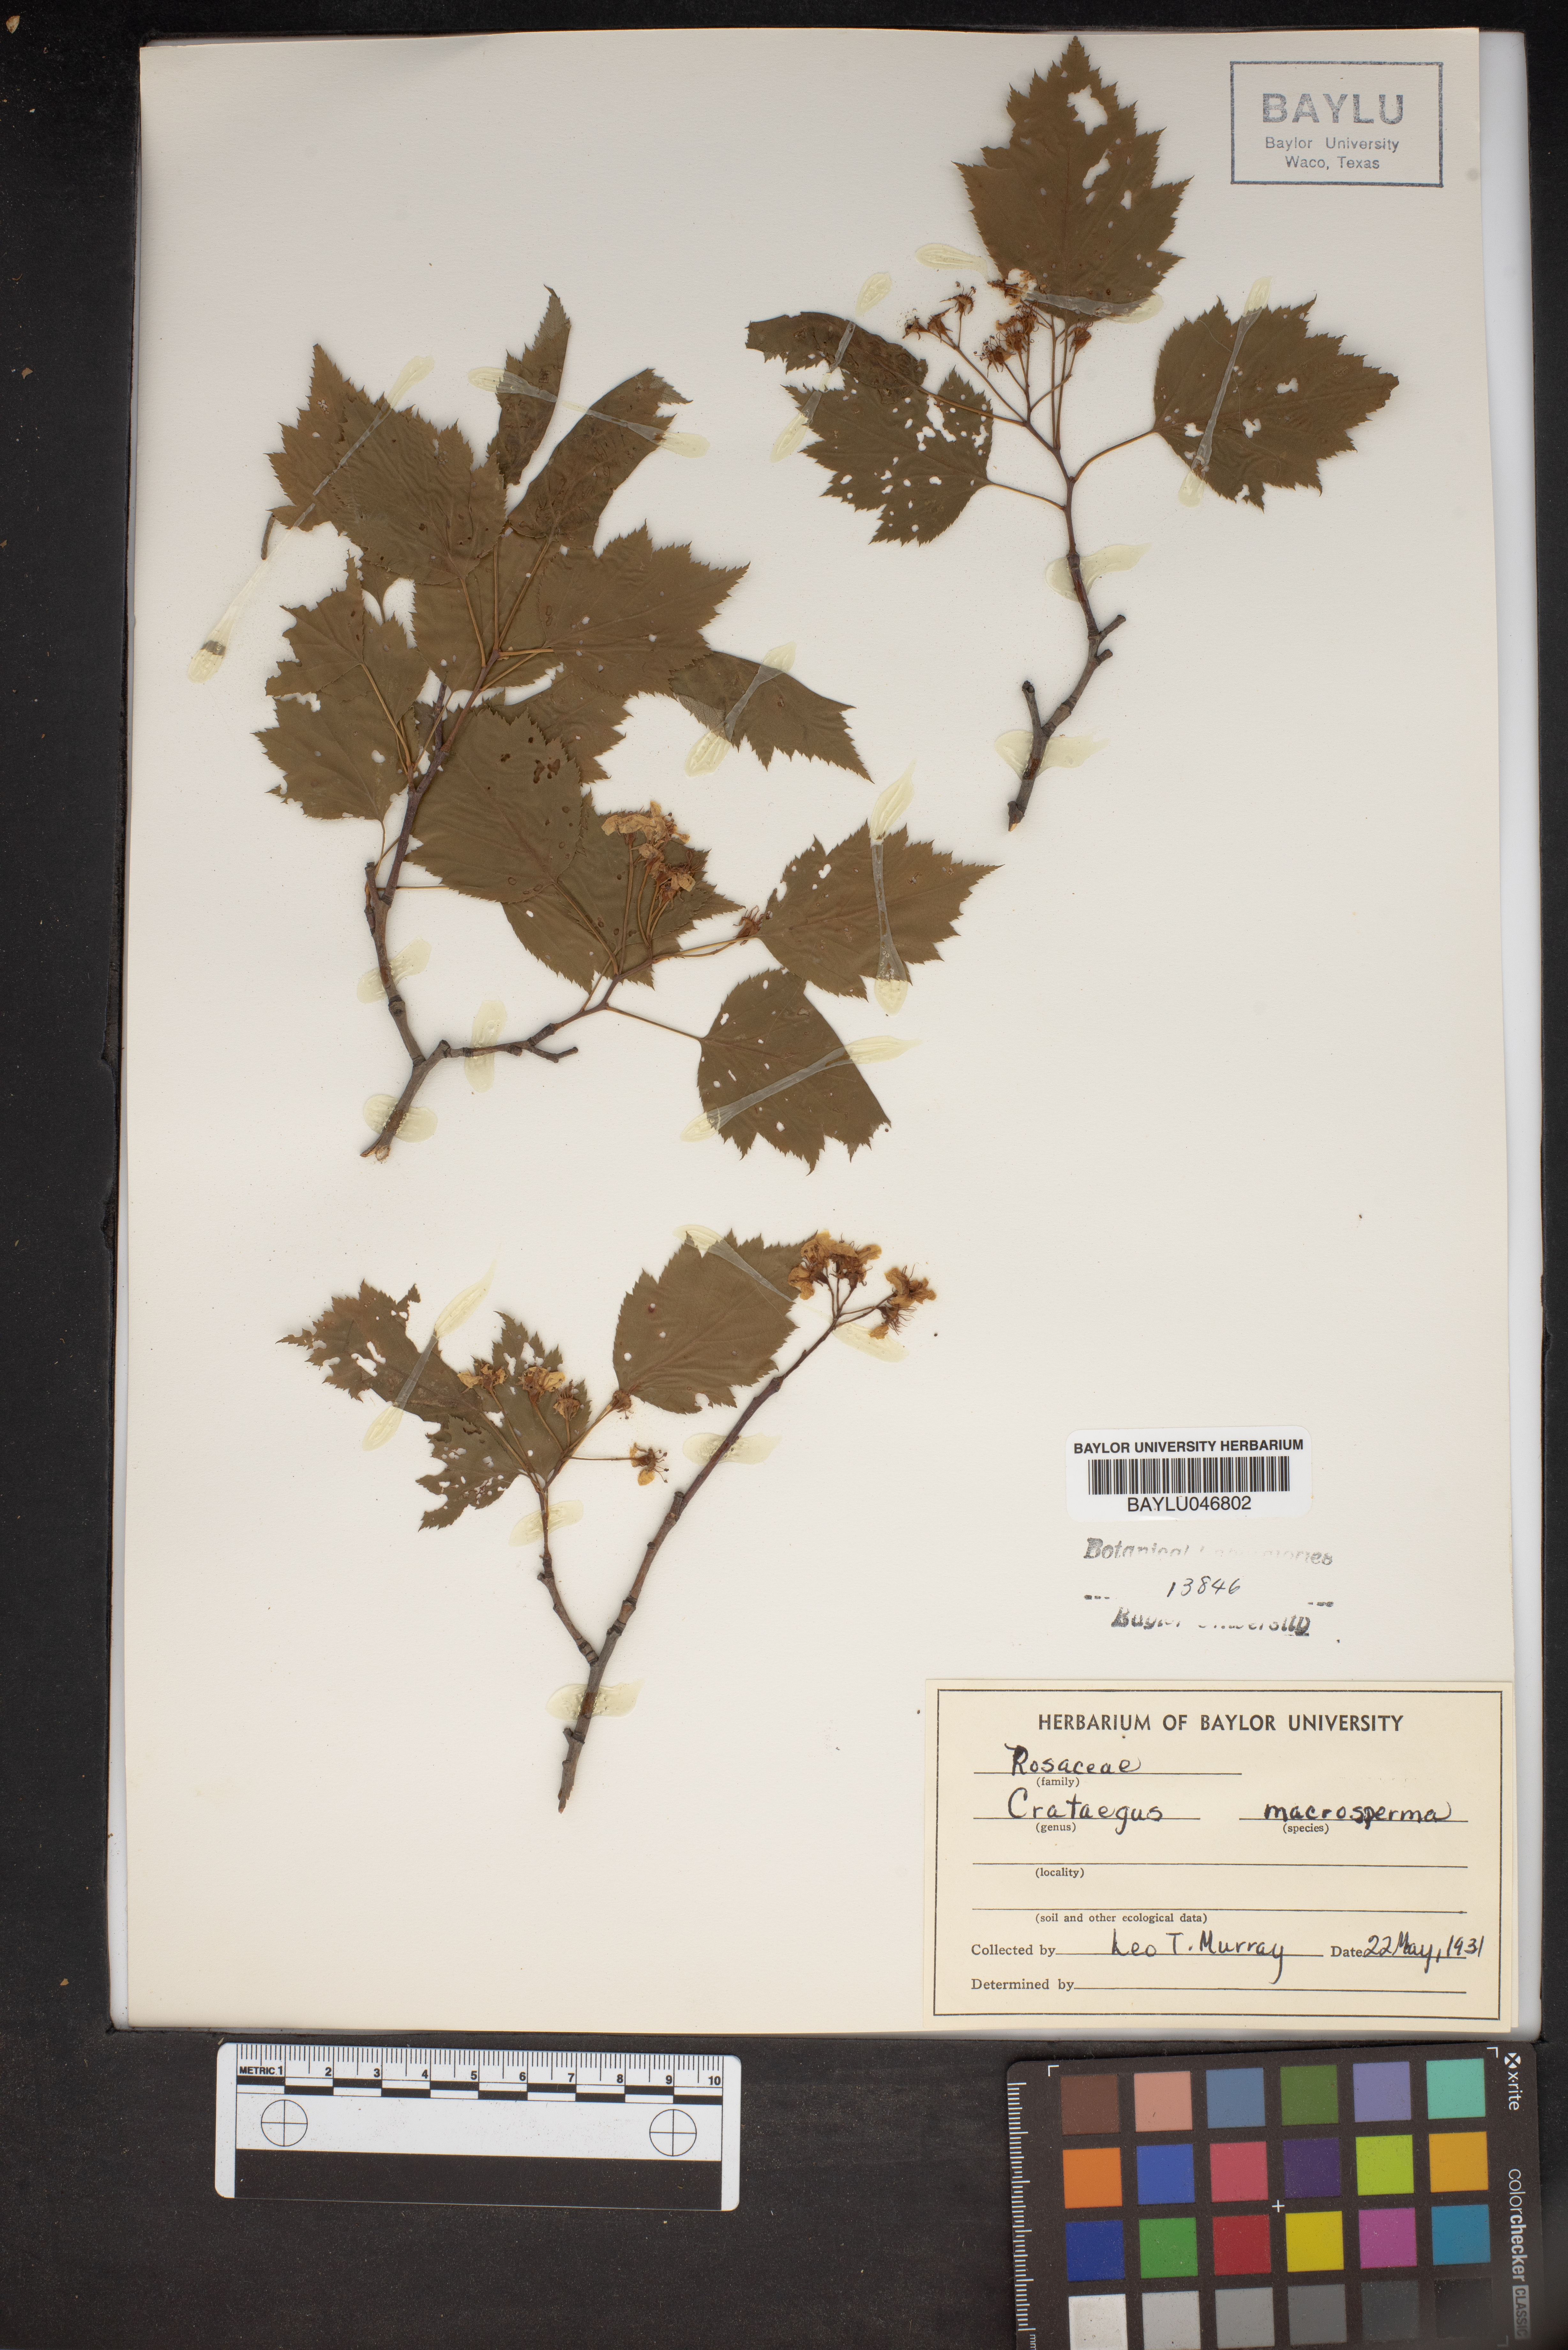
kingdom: Plantae
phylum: Tracheophyta
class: Magnoliopsida
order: Rosales
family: Rosaceae
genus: Crataegus
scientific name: Crataegus macrosperma
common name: Variable hawthorn
